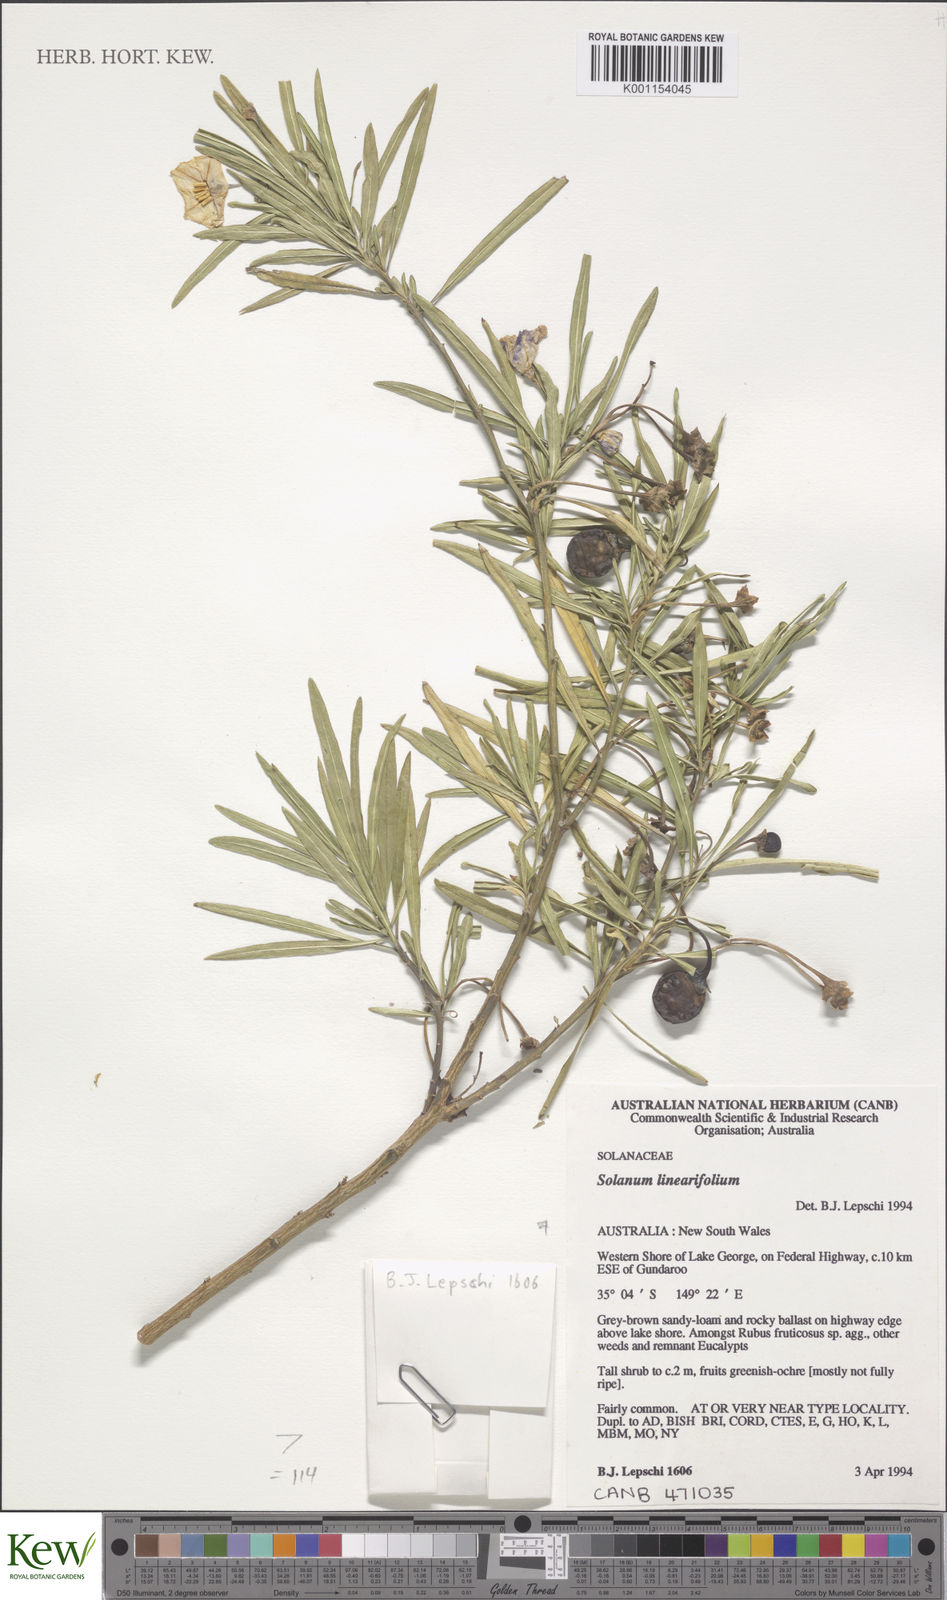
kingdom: Plantae
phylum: Tracheophyta
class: Magnoliopsida
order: Solanales
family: Solanaceae
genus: Solanum
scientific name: Solanum linearifolium
